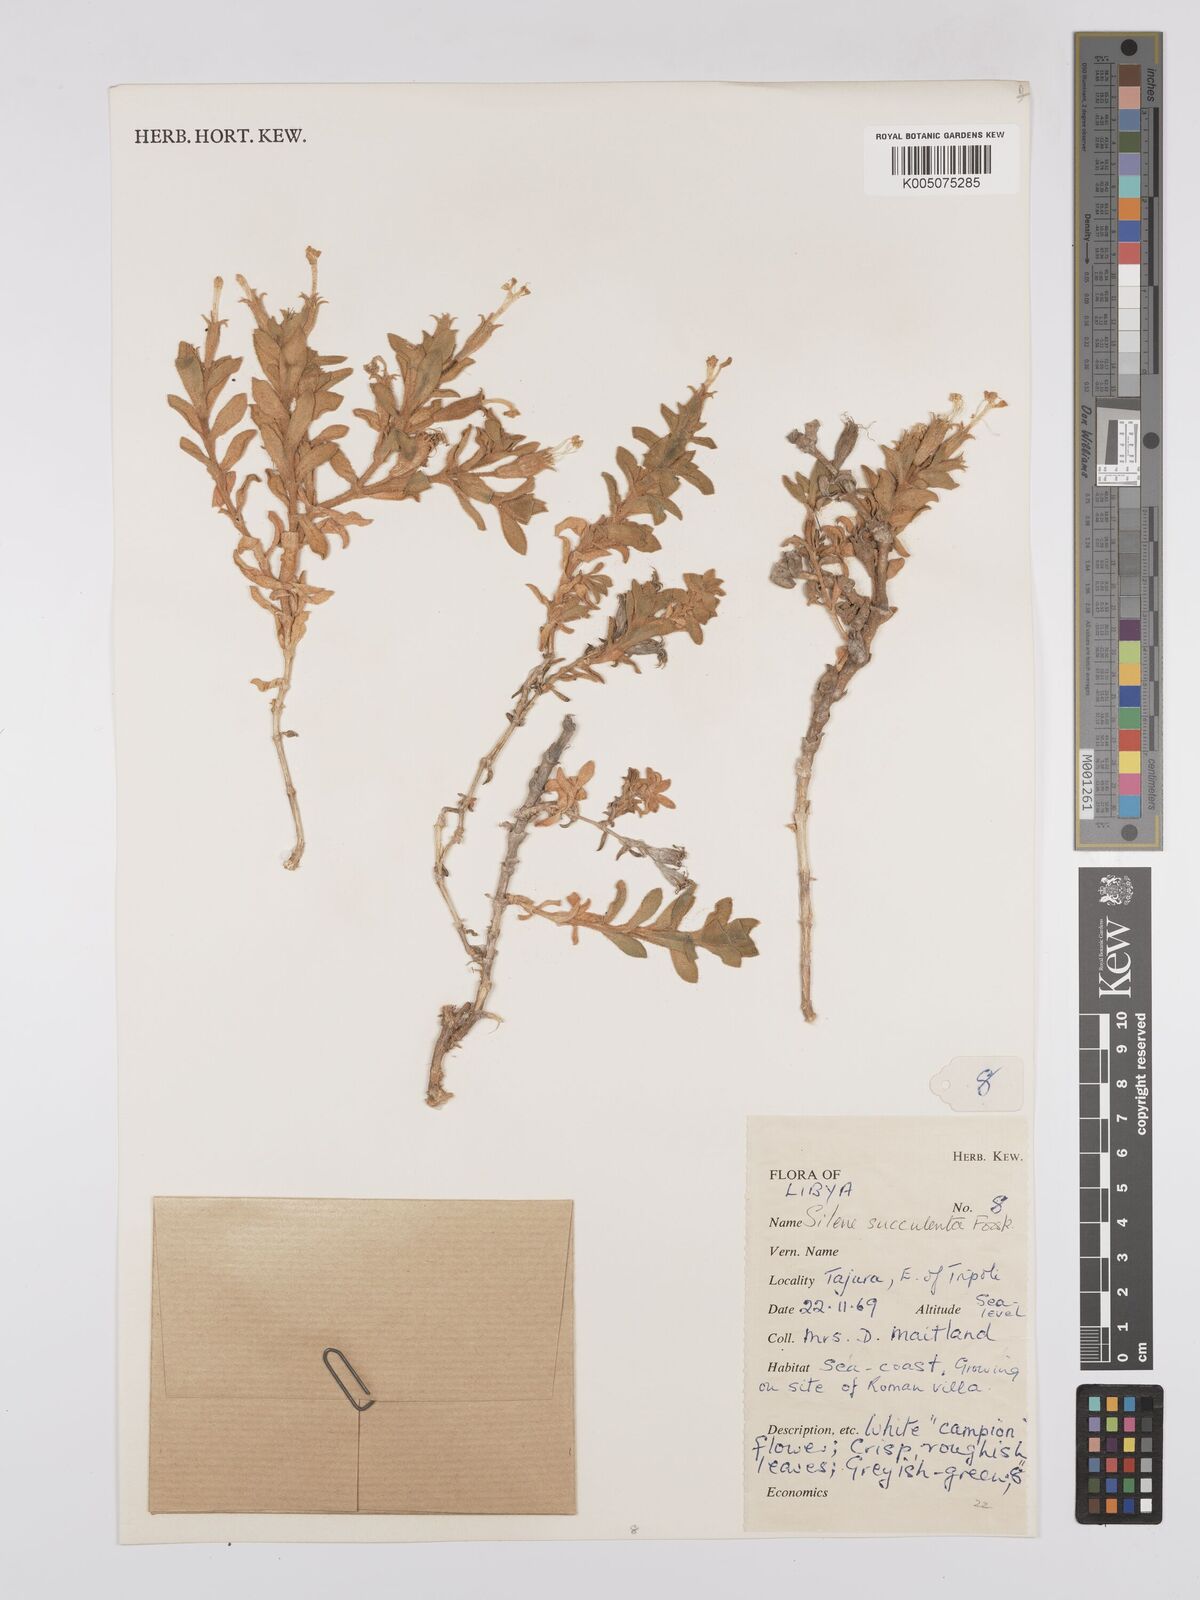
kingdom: Plantae
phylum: Tracheophyta
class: Magnoliopsida
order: Caryophyllales
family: Caryophyllaceae
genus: Silene
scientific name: Silene succulenta
